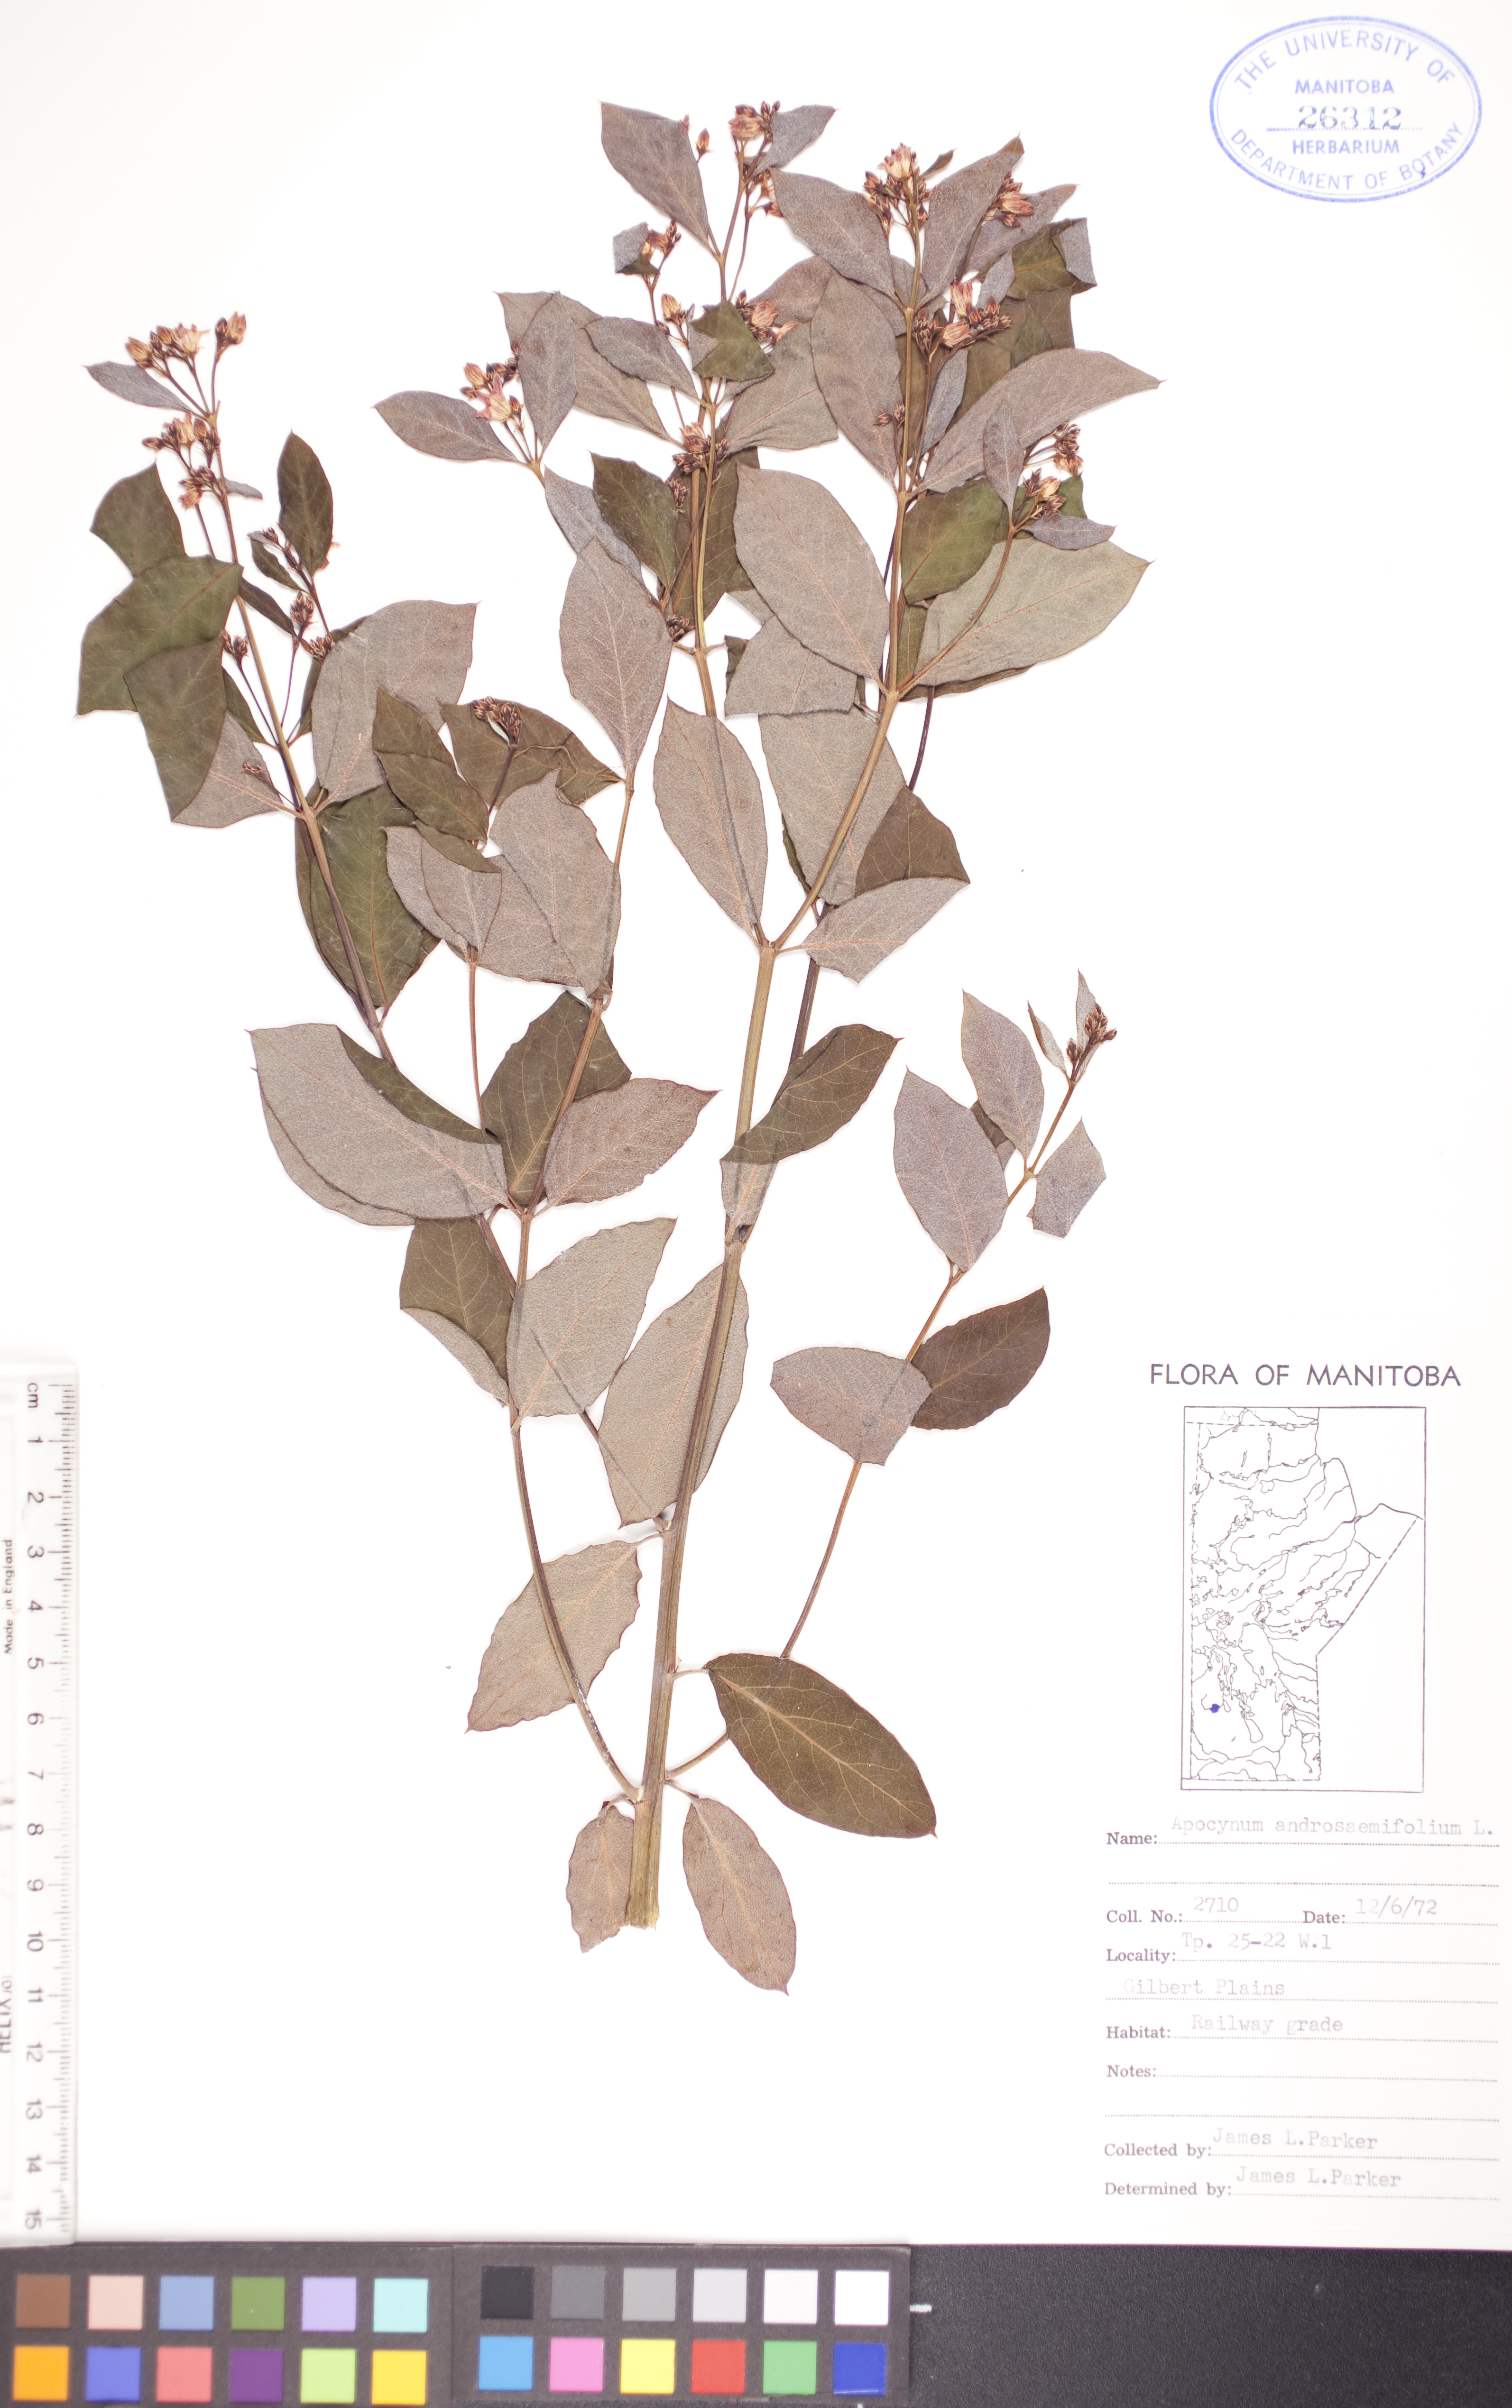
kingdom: Plantae
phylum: Tracheophyta
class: Magnoliopsida
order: Gentianales
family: Apocynaceae
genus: Apocynum
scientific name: Apocynum androsaemifolium
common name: Spreading dogbane
